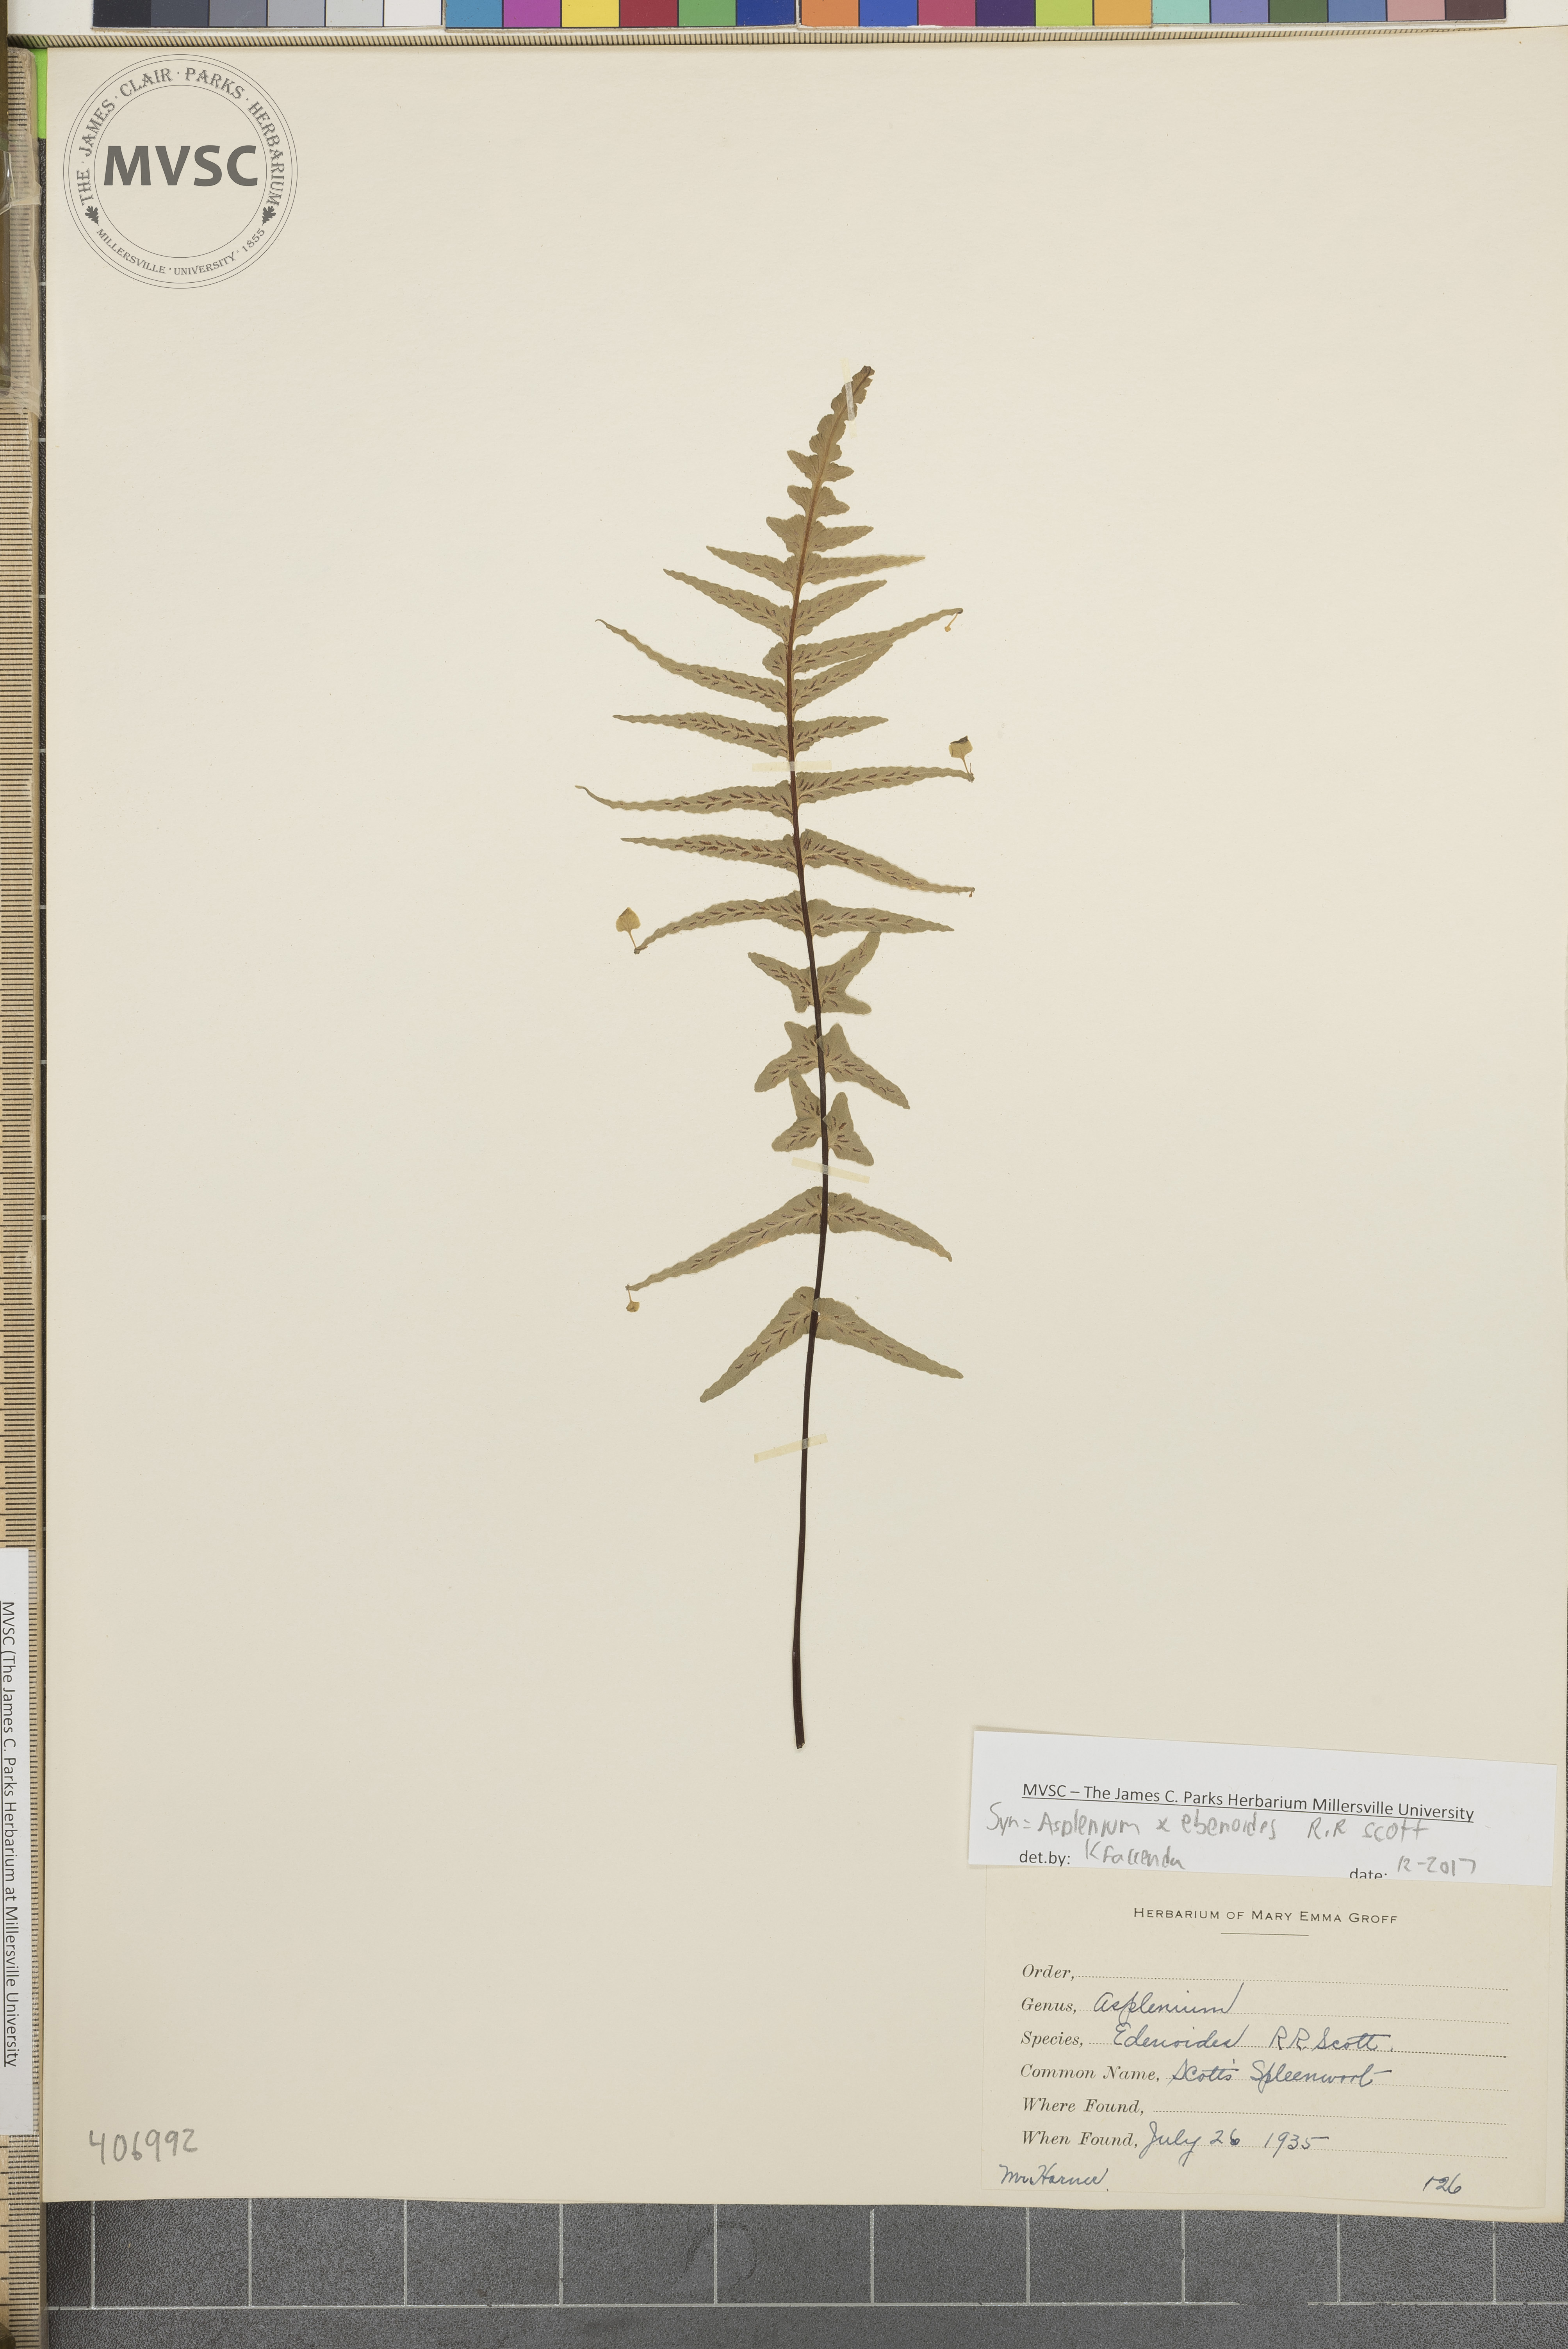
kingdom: Plantae
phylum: Tracheophyta
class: Polypodiopsida
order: Polypodiales
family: Aspleniaceae
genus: Asplenium
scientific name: Asplenium ebenoides
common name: Dragon-tail fern
